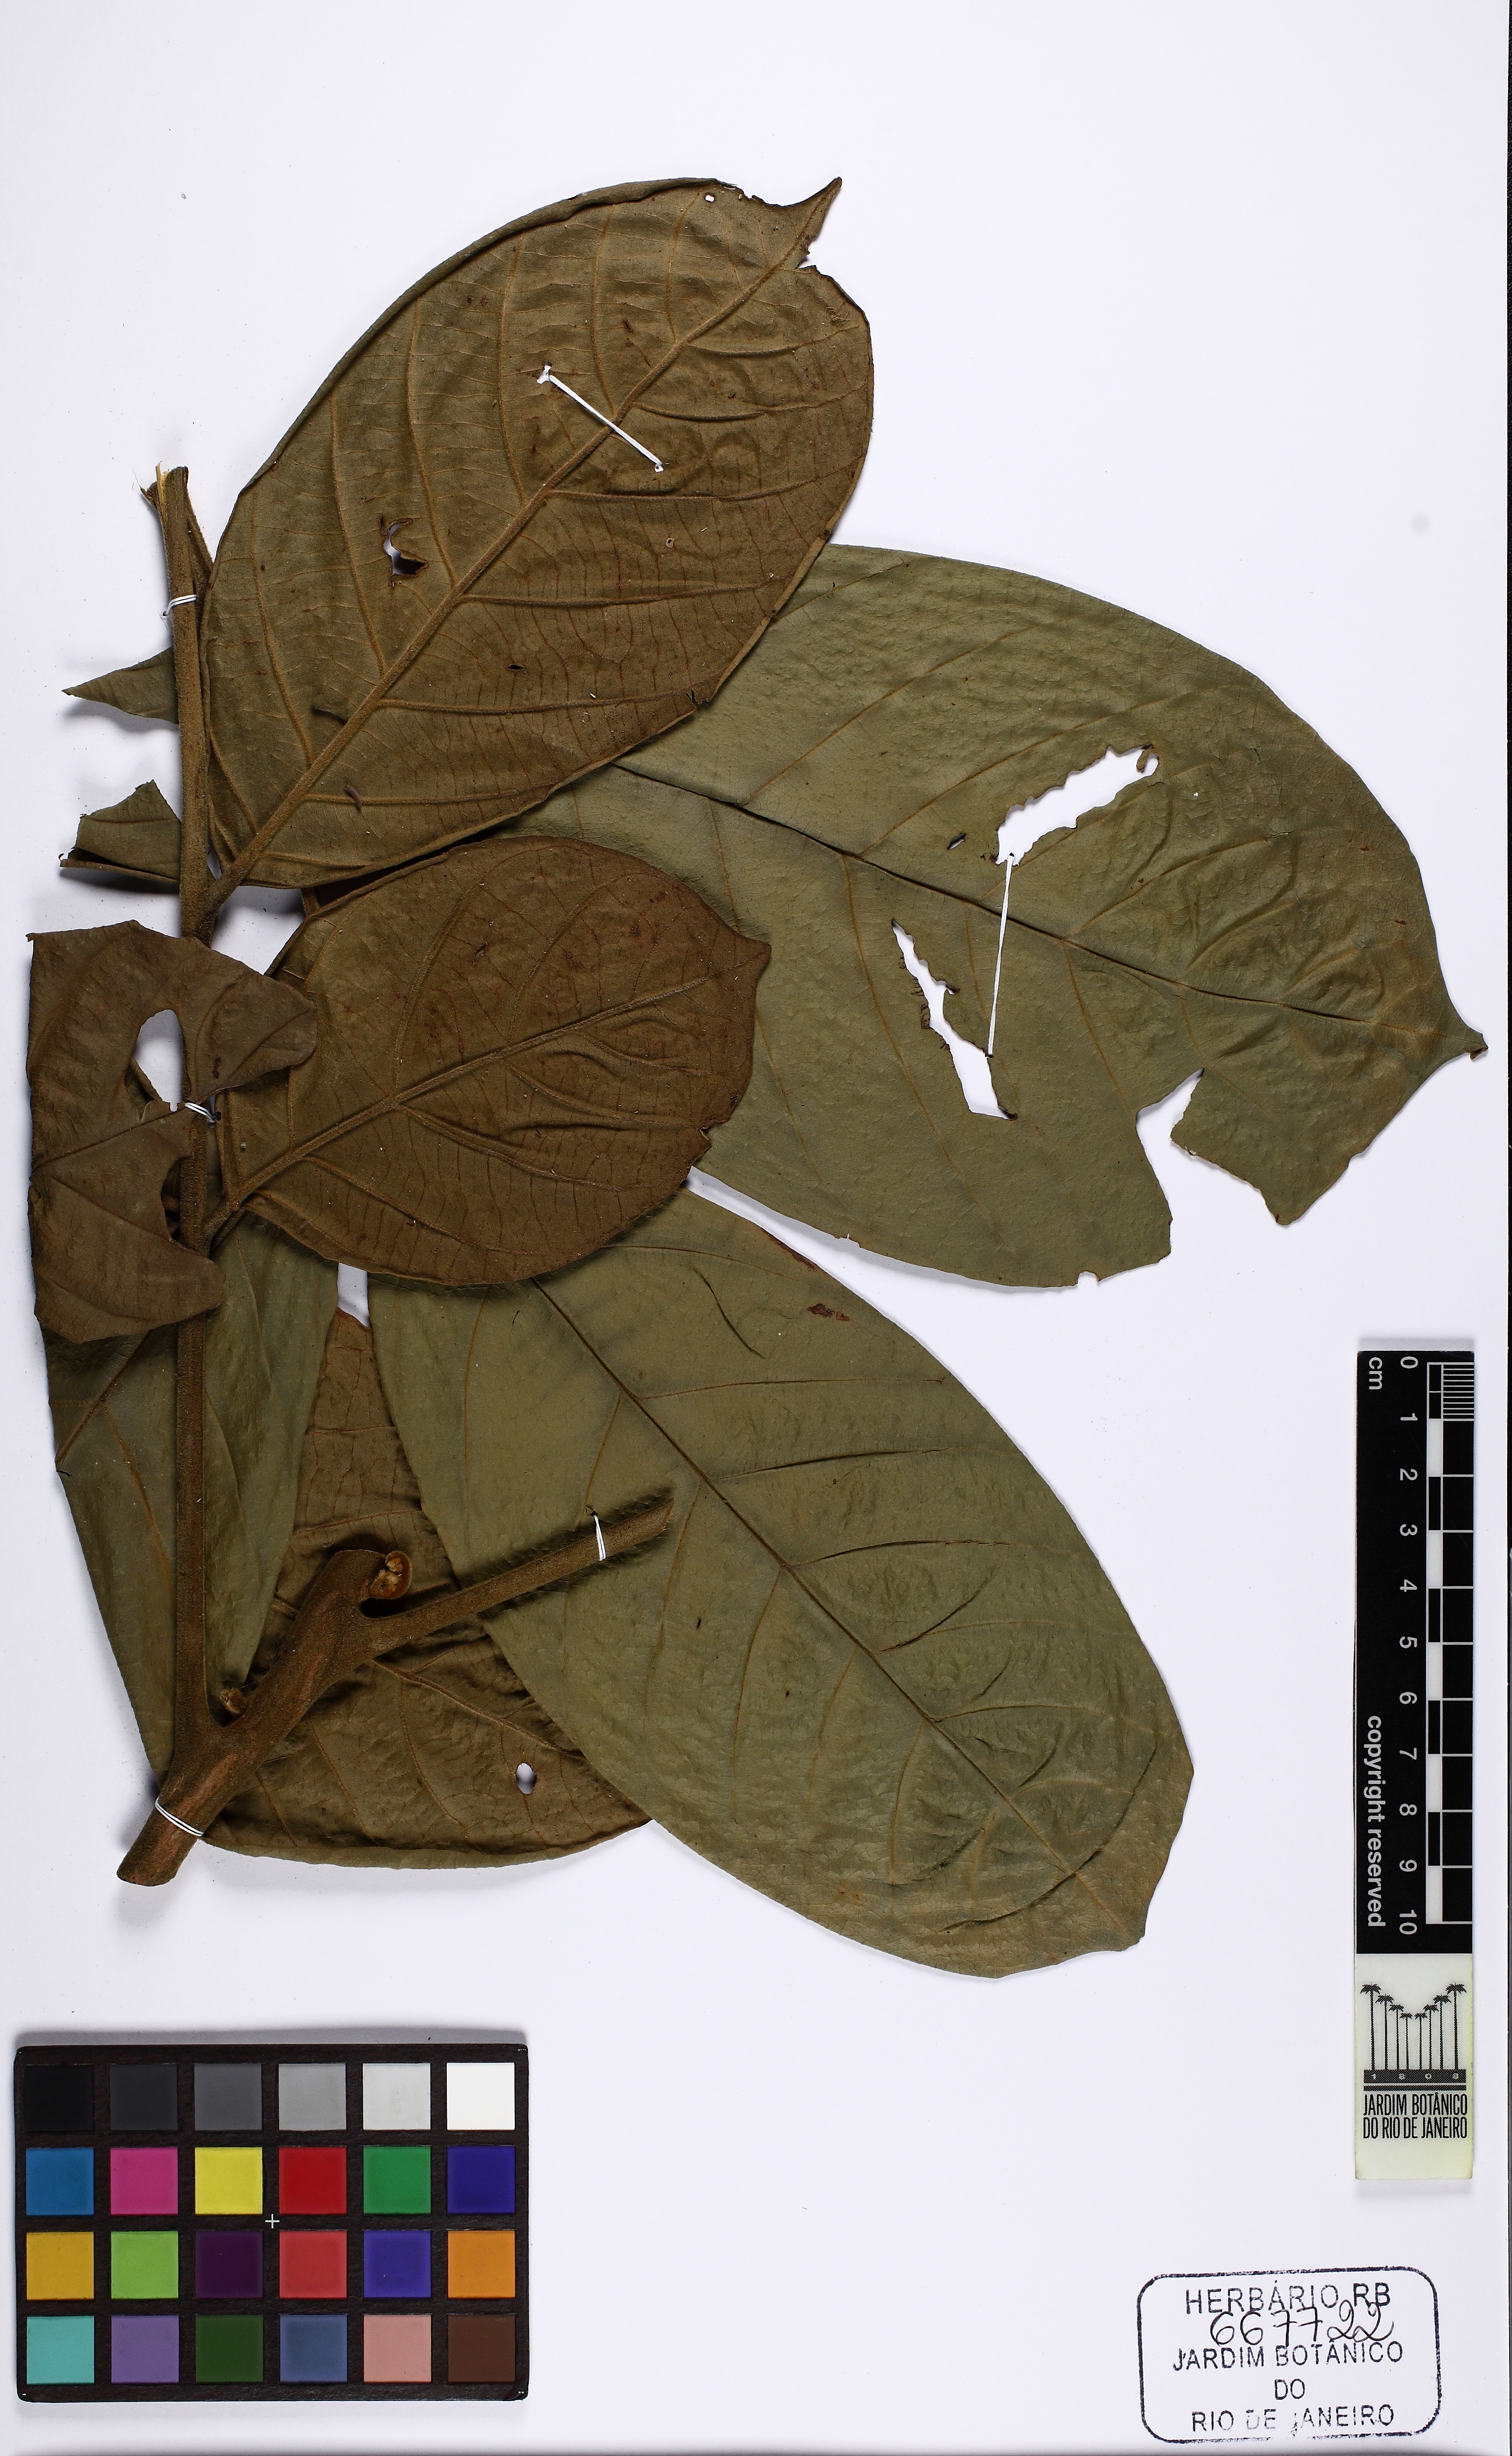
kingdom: Plantae
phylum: Tracheophyta
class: Magnoliopsida
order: Sapindales
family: Meliaceae
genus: Guarea
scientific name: Guarea
